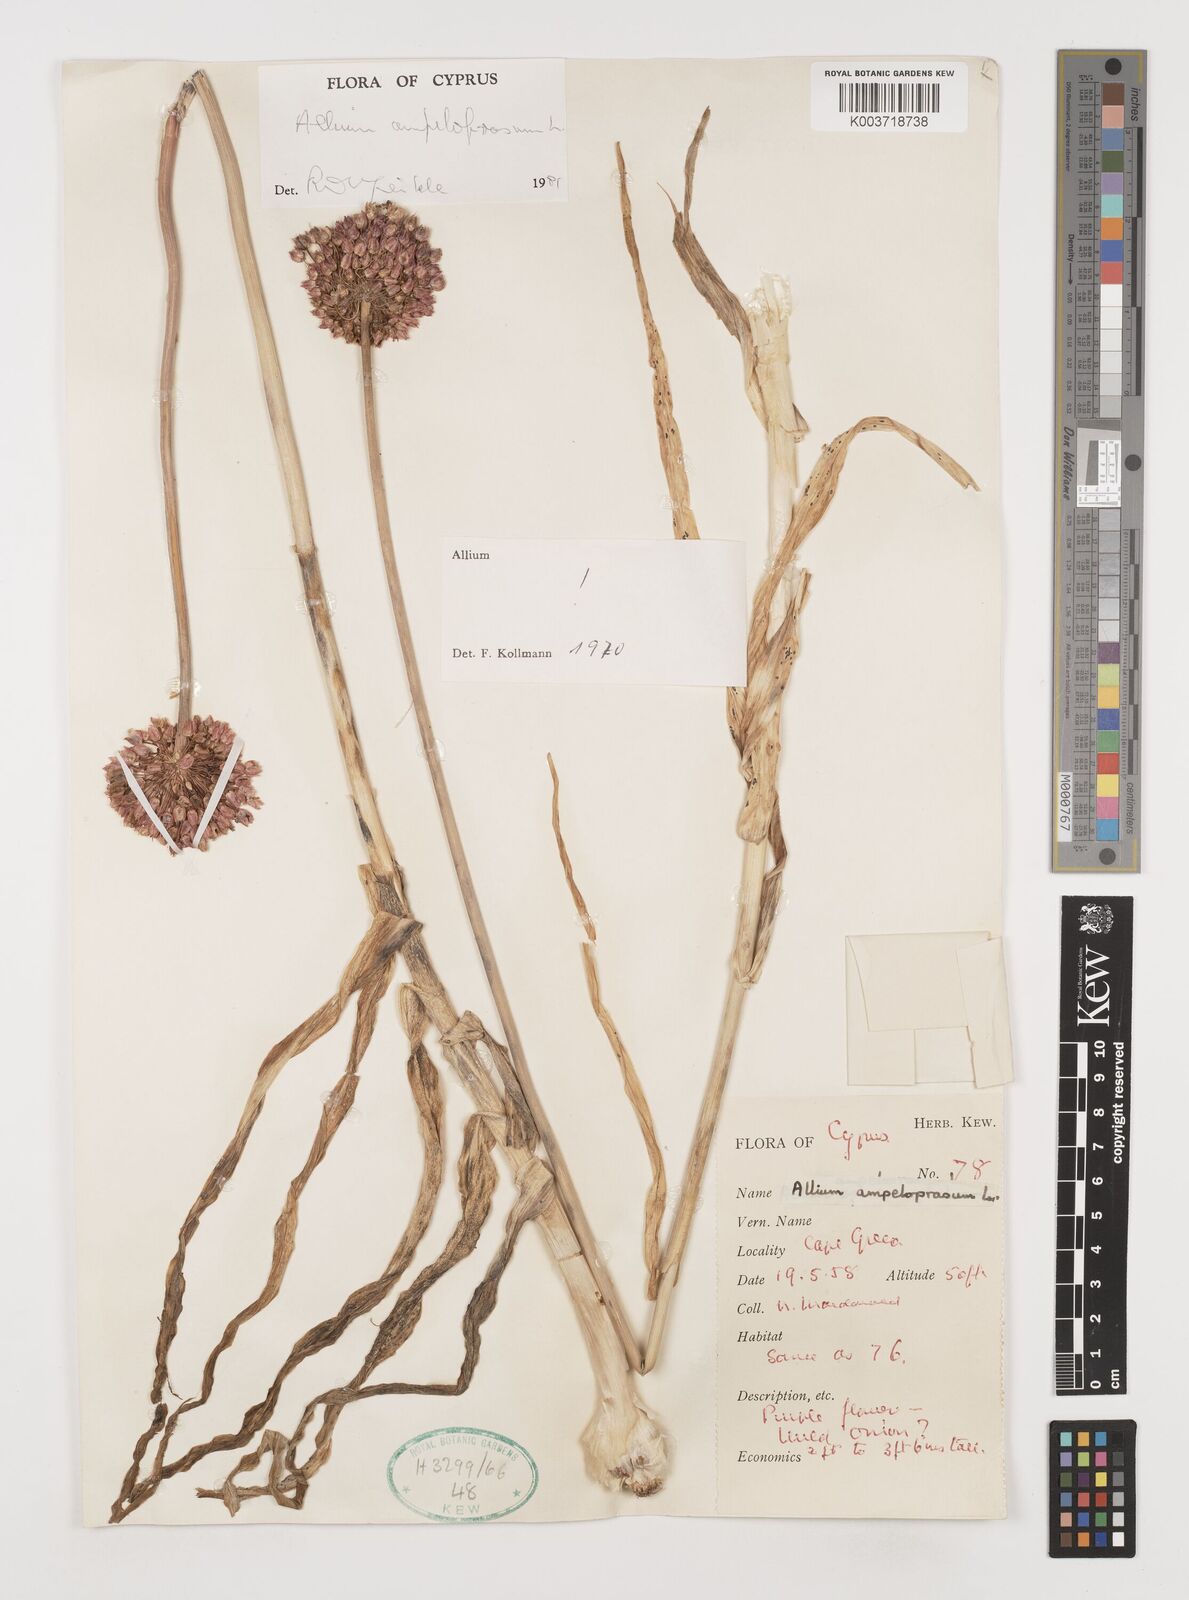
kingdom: Plantae
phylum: Tracheophyta
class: Liliopsida
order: Asparagales
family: Amaryllidaceae
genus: Allium
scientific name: Allium ampeloprasum
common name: Wild leek
